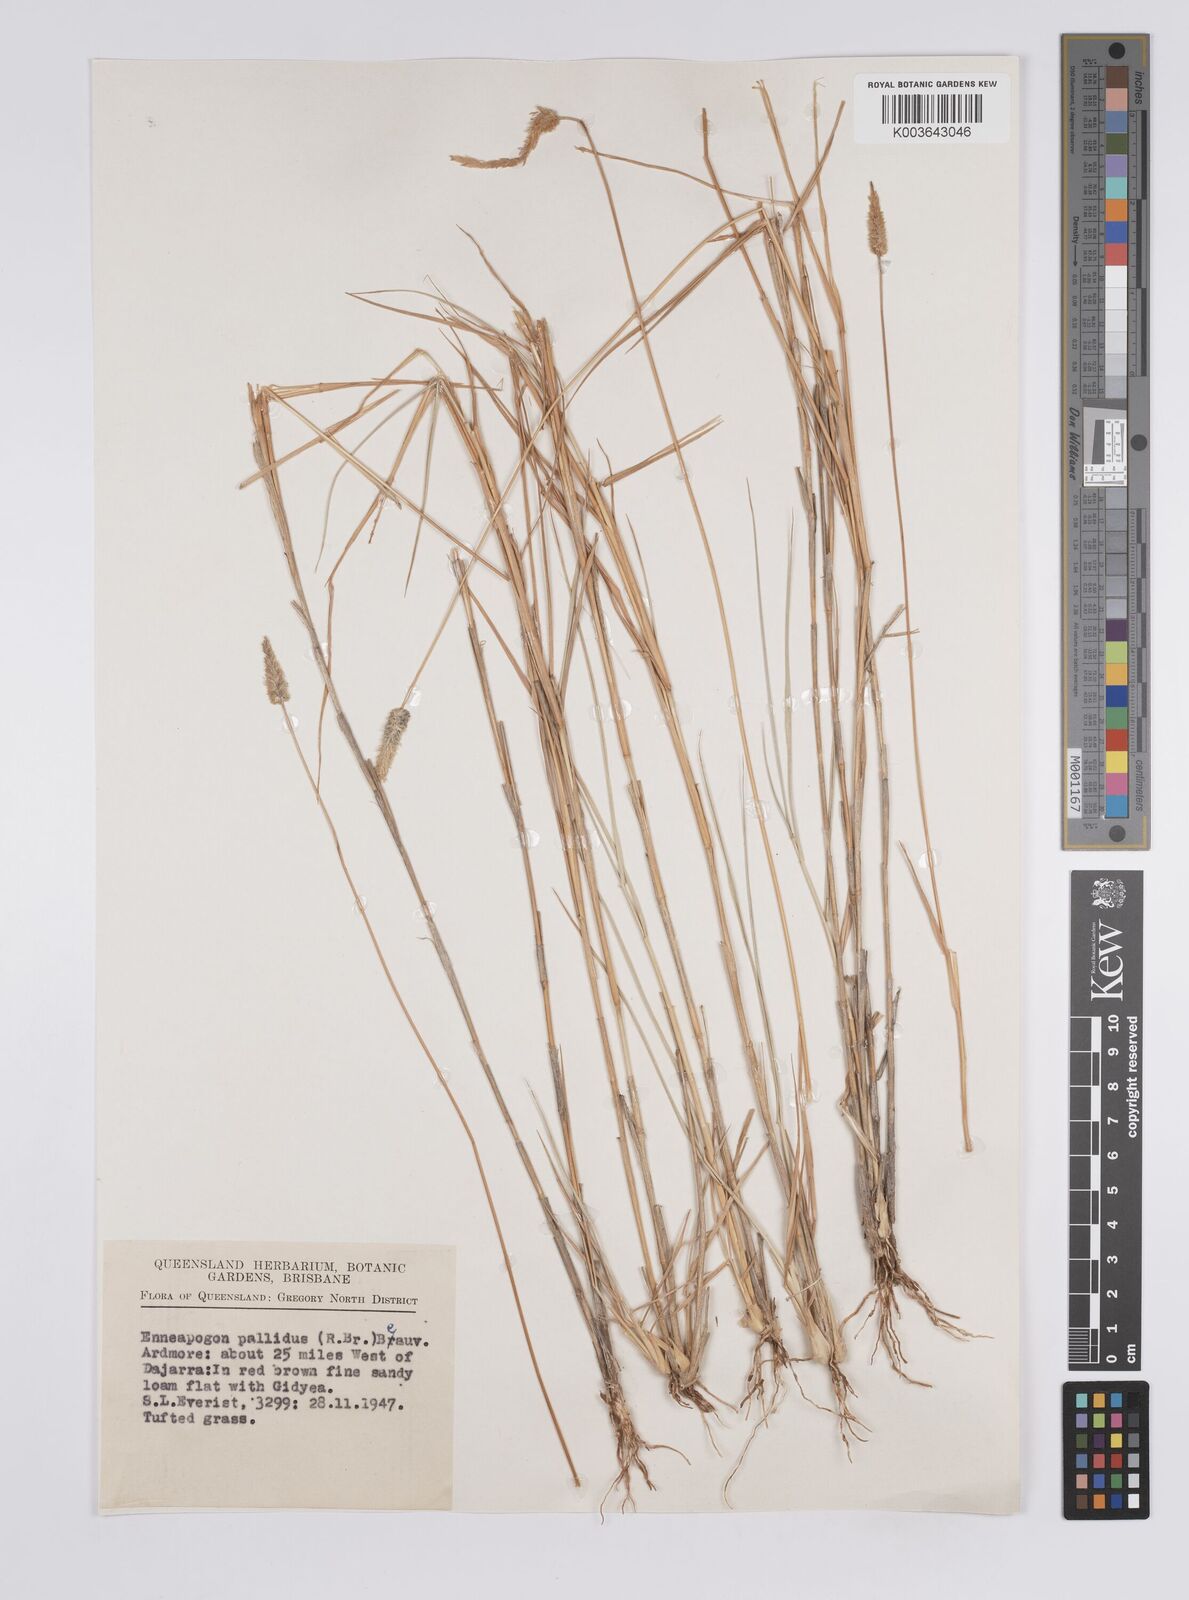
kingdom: Plantae
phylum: Tracheophyta
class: Liliopsida
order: Poales
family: Poaceae
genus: Enneapogon
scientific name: Enneapogon pallidus
